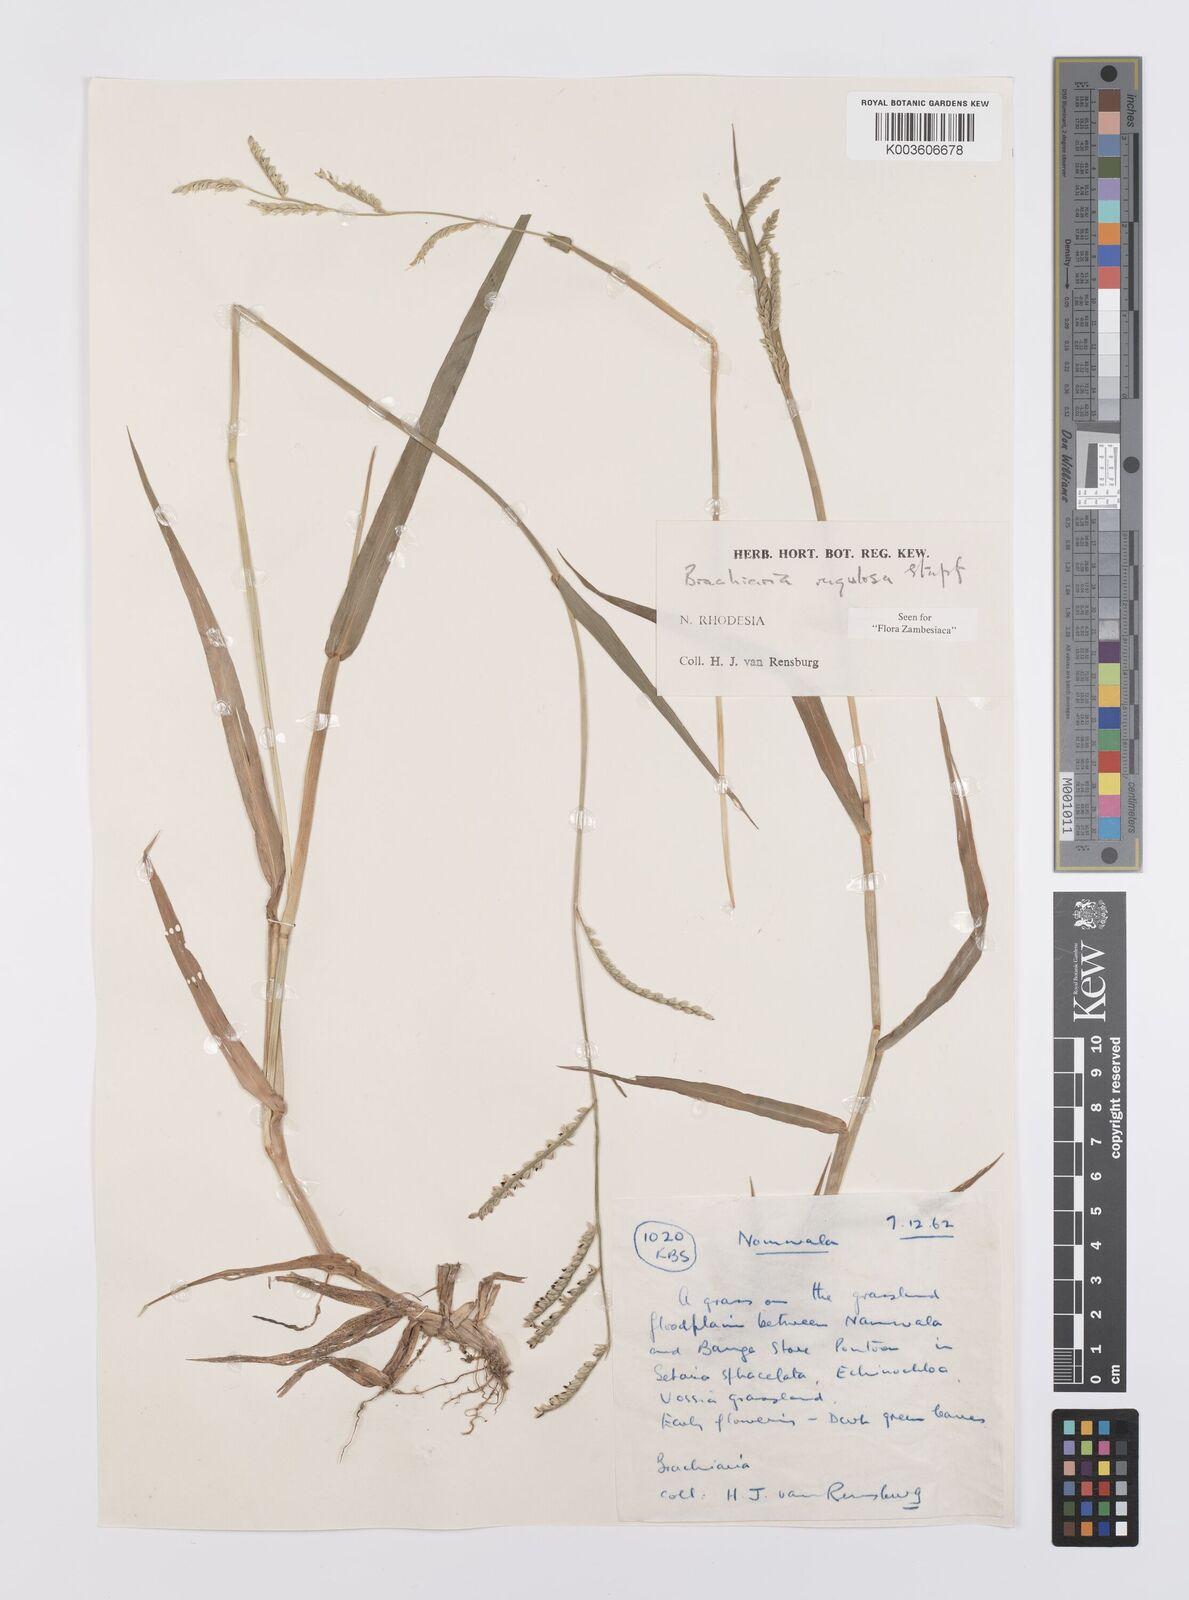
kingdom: Plantae
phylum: Tracheophyta
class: Liliopsida
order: Poales
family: Poaceae
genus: Urochloa
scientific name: Urochloa rugulosa
